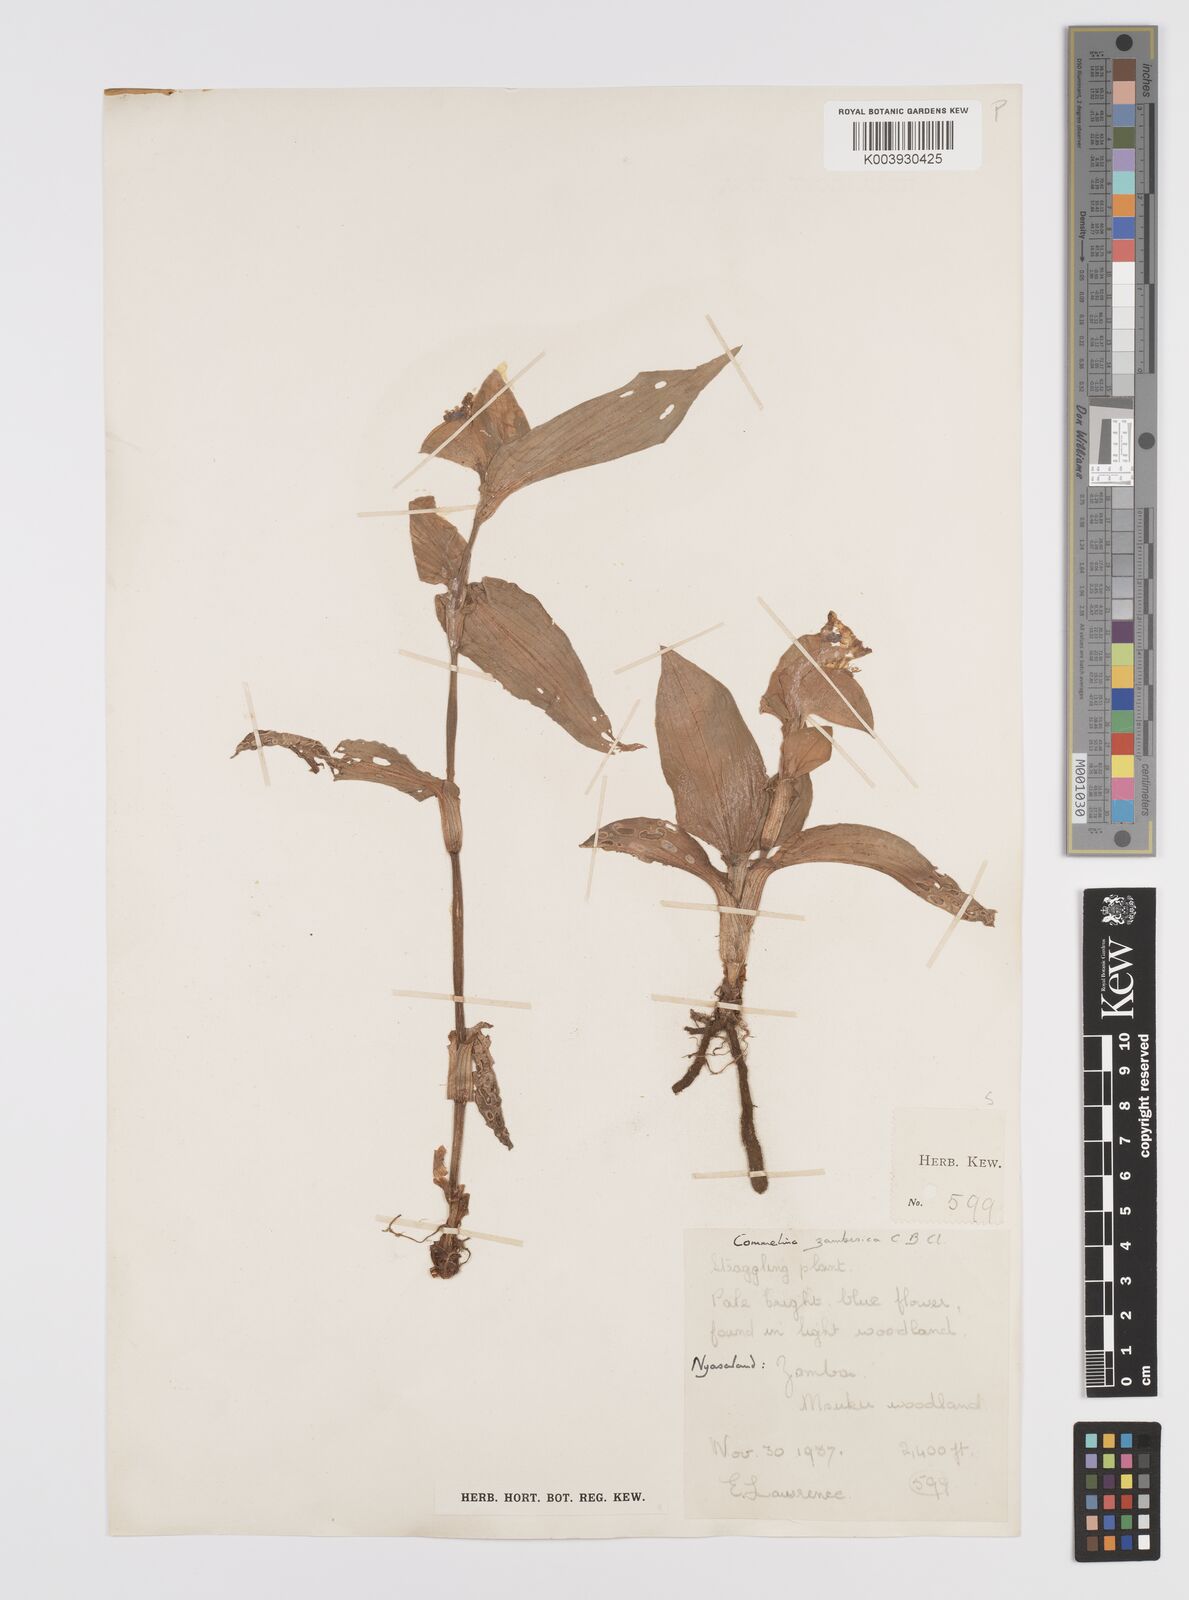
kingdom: Plantae
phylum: Tracheophyta
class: Liliopsida
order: Commelinales
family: Commelinaceae
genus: Commelina
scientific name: Commelina zambesica
